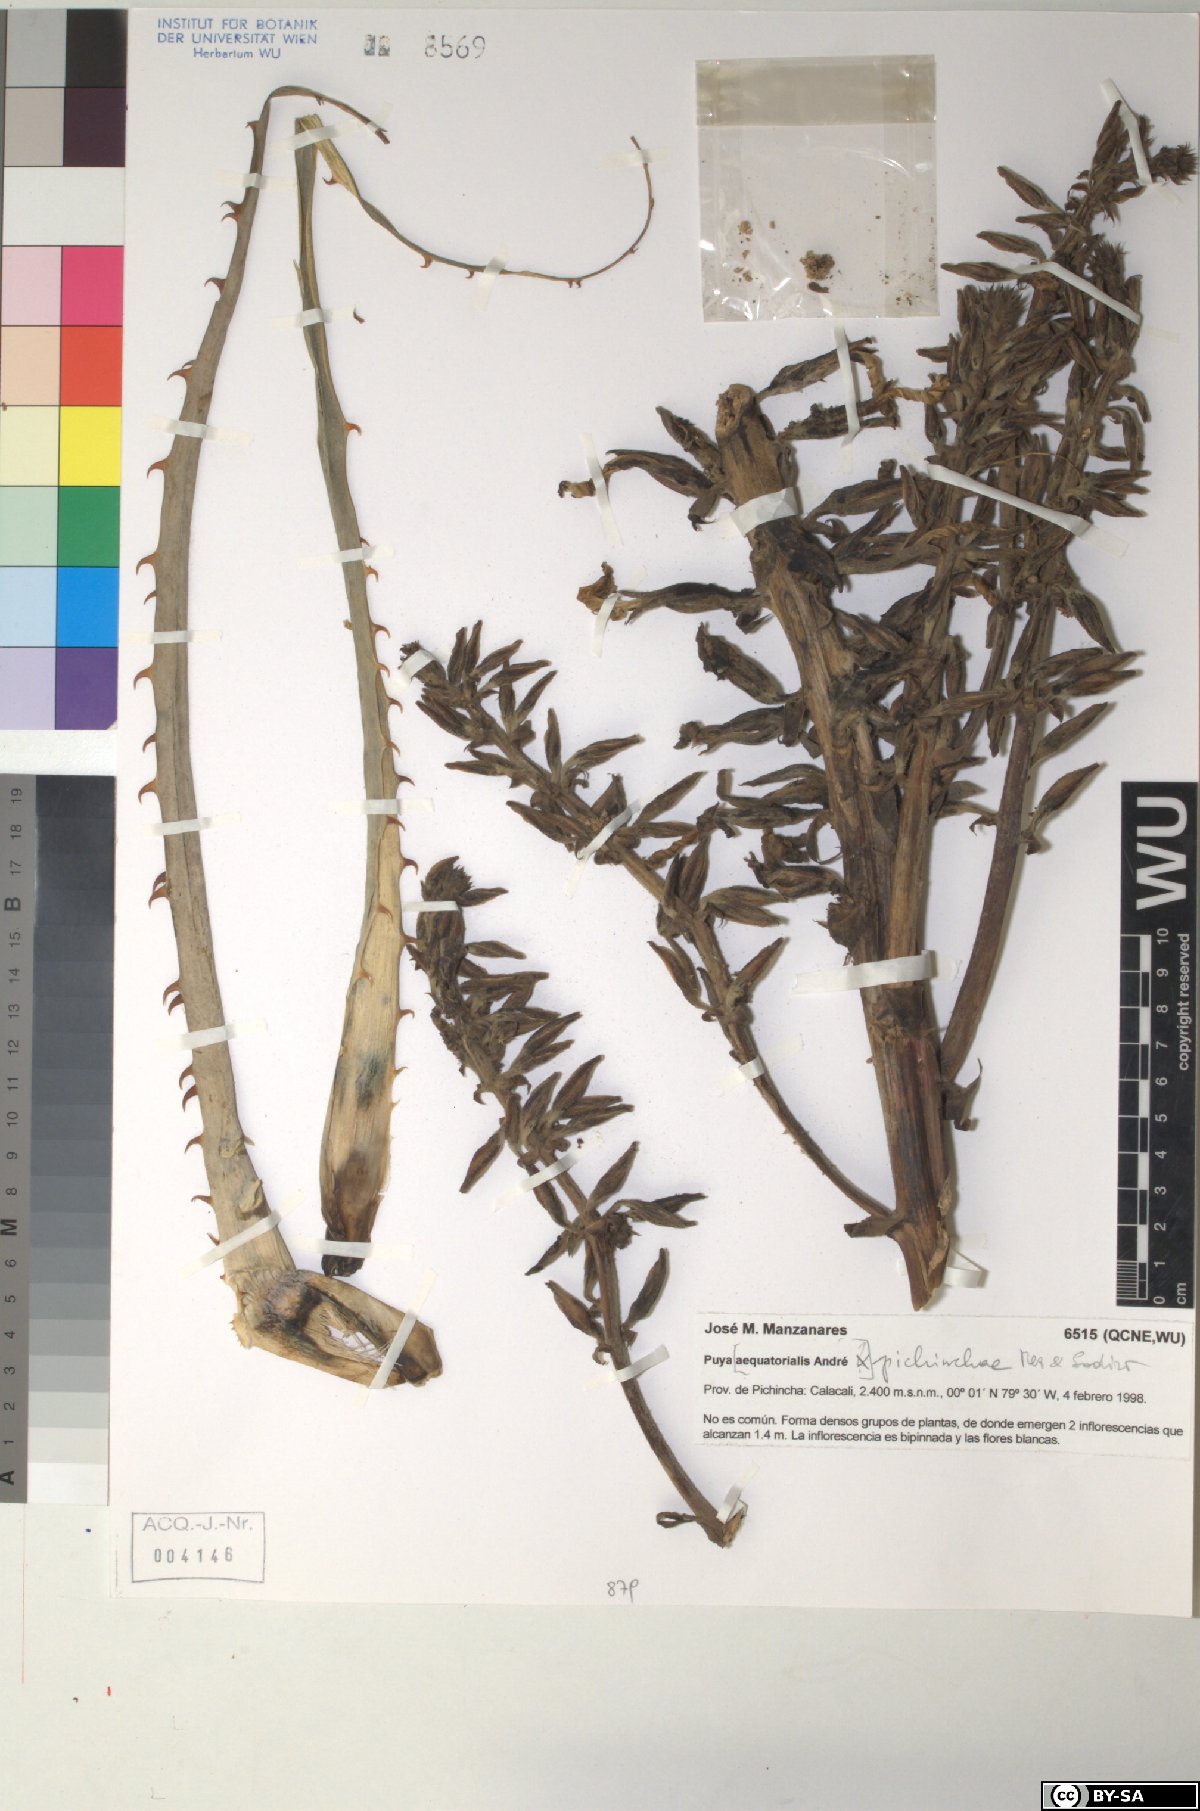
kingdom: Plantae
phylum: Tracheophyta
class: Liliopsida
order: Poales
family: Bromeliaceae
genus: Puya
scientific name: Puya aequatorialis
